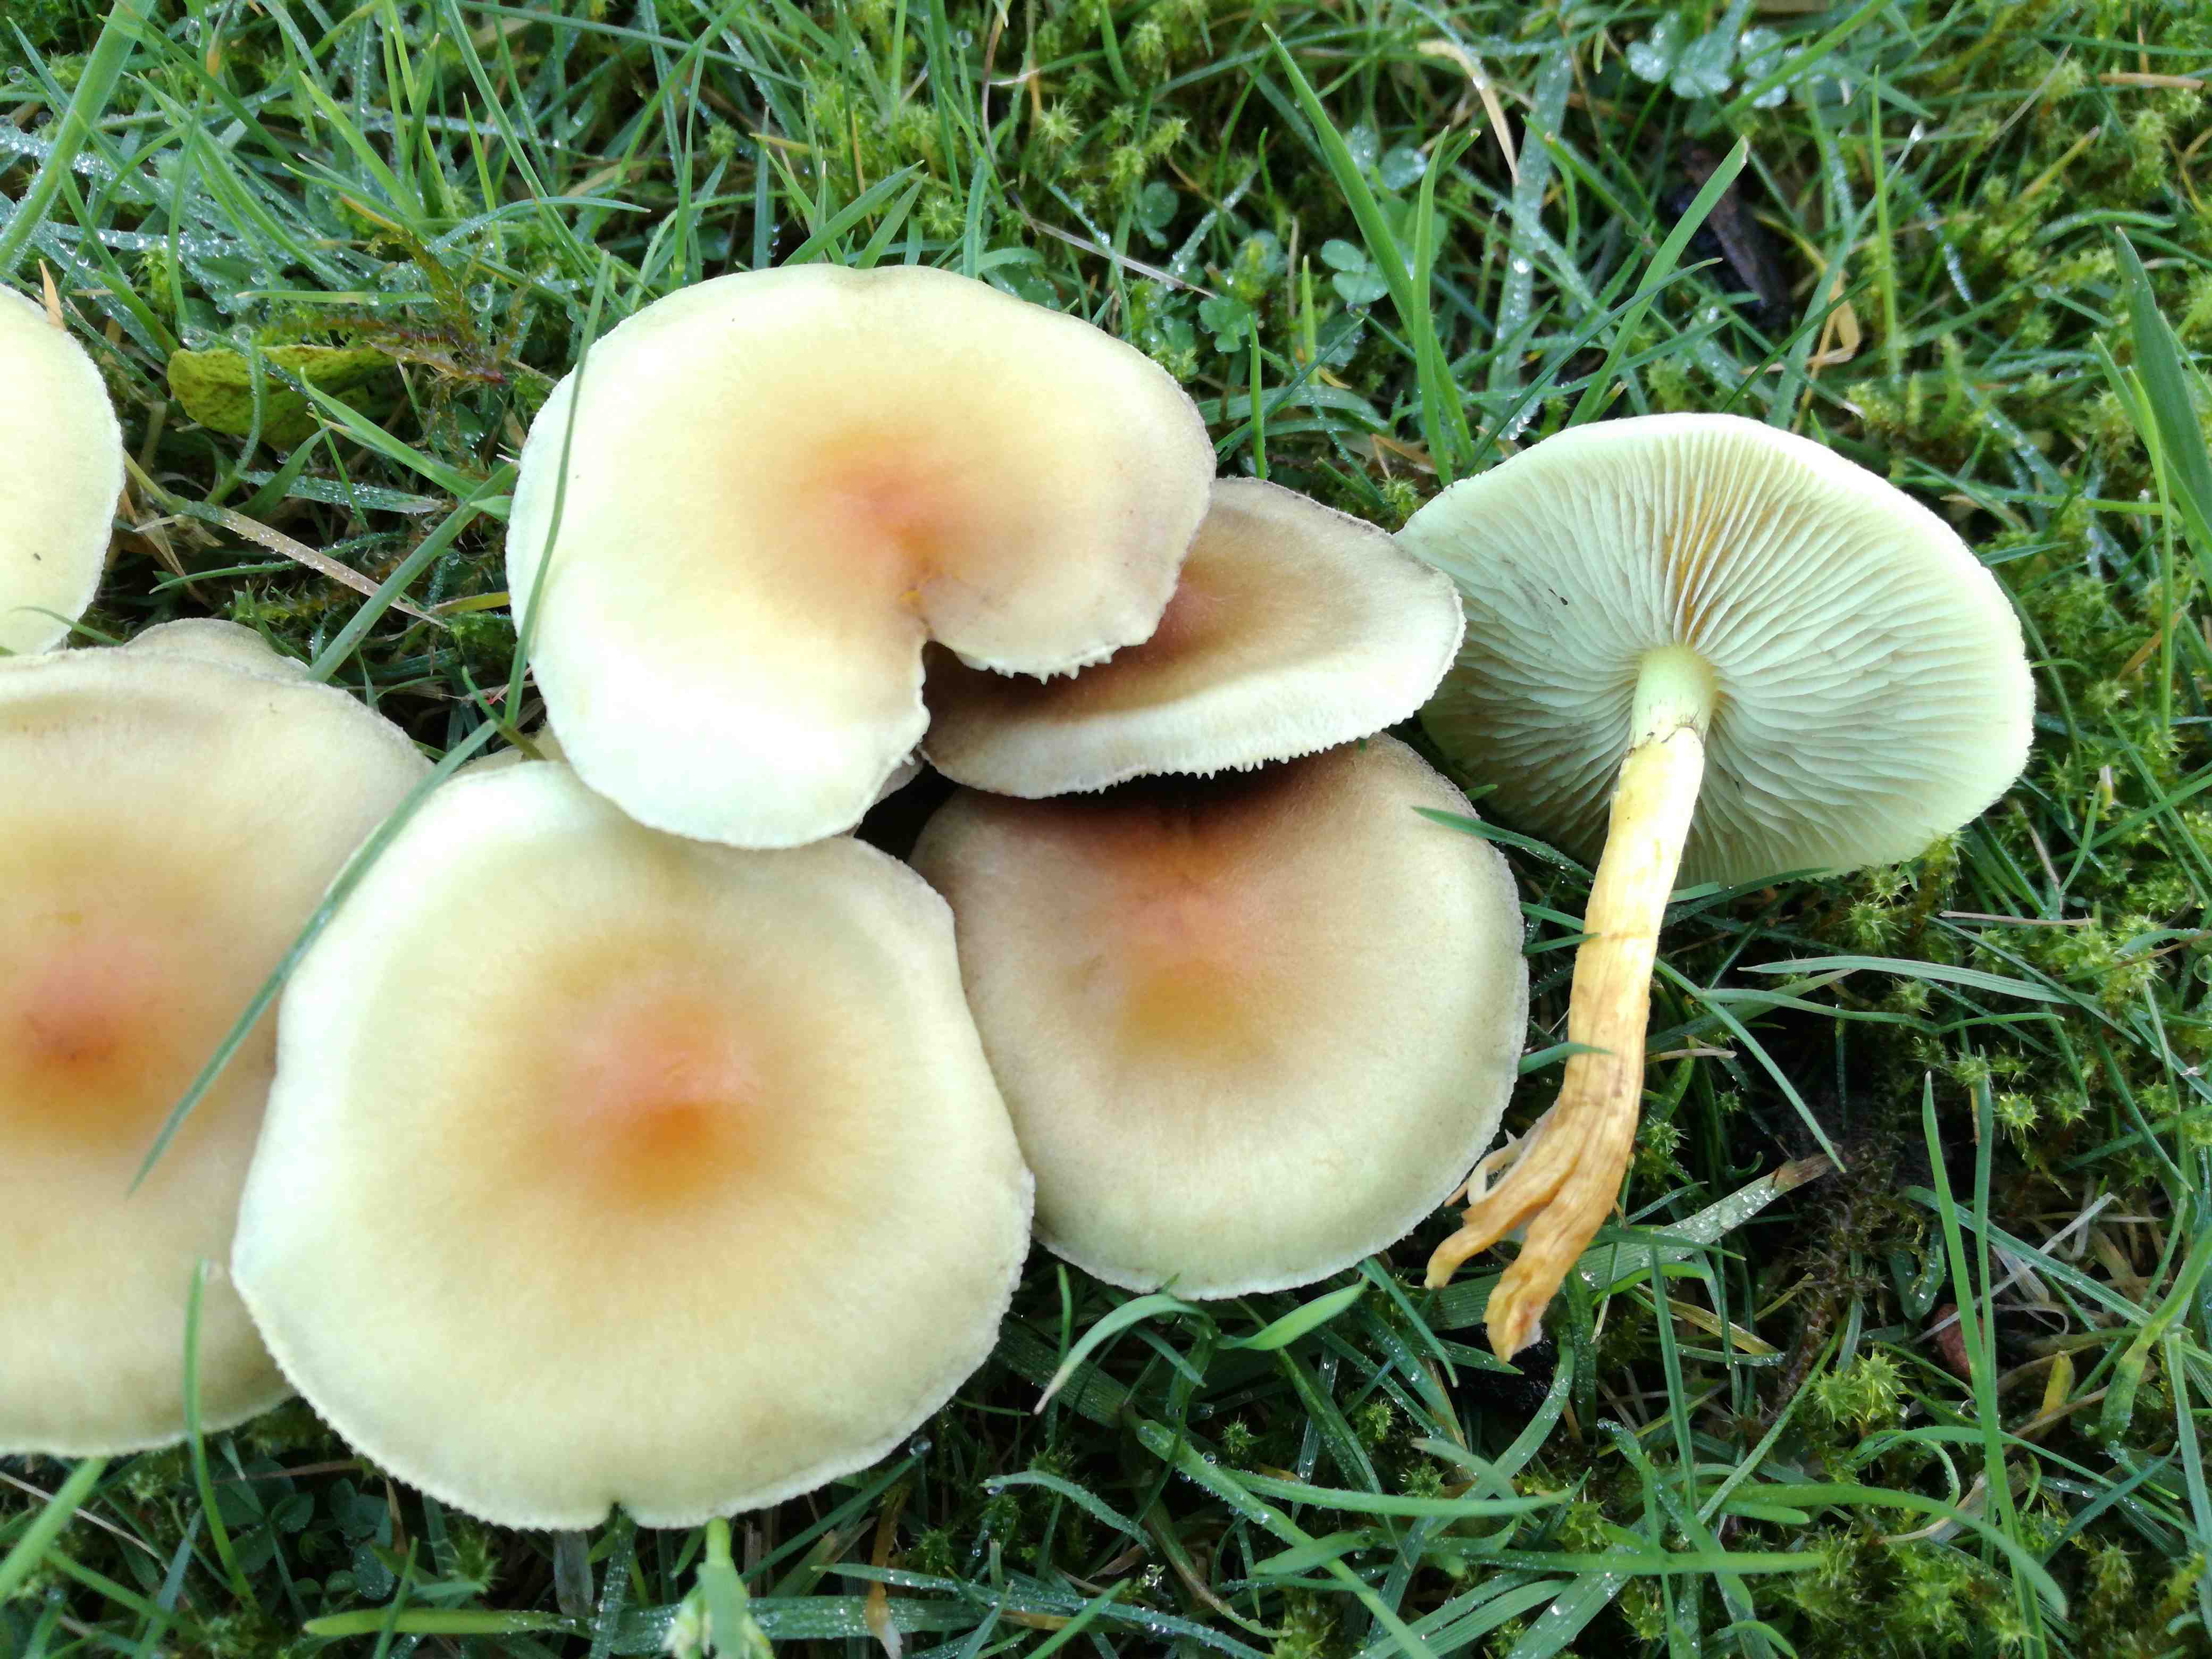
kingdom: Fungi
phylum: Basidiomycota
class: Agaricomycetes
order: Agaricales
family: Strophariaceae
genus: Hypholoma
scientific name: Hypholoma fasciculare
